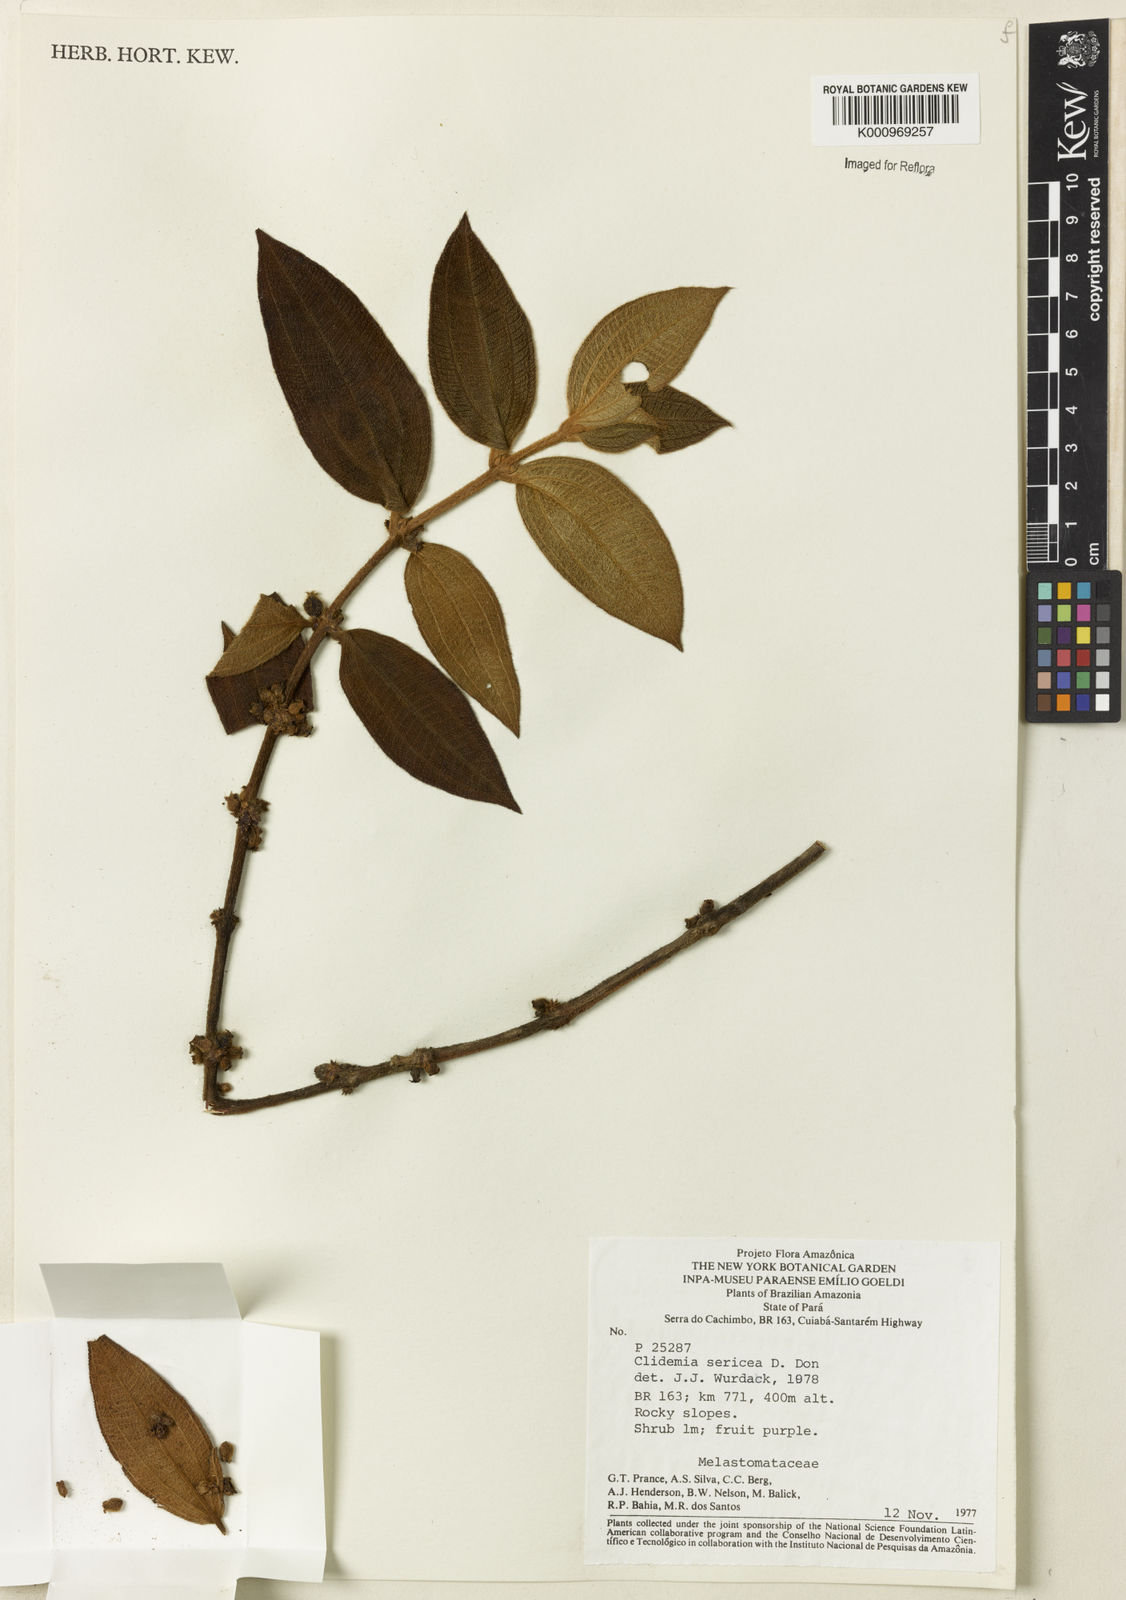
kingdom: Plantae
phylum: Tracheophyta
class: Magnoliopsida
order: Myrtales
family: Melastomataceae
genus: Miconia
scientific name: Miconia sericea
